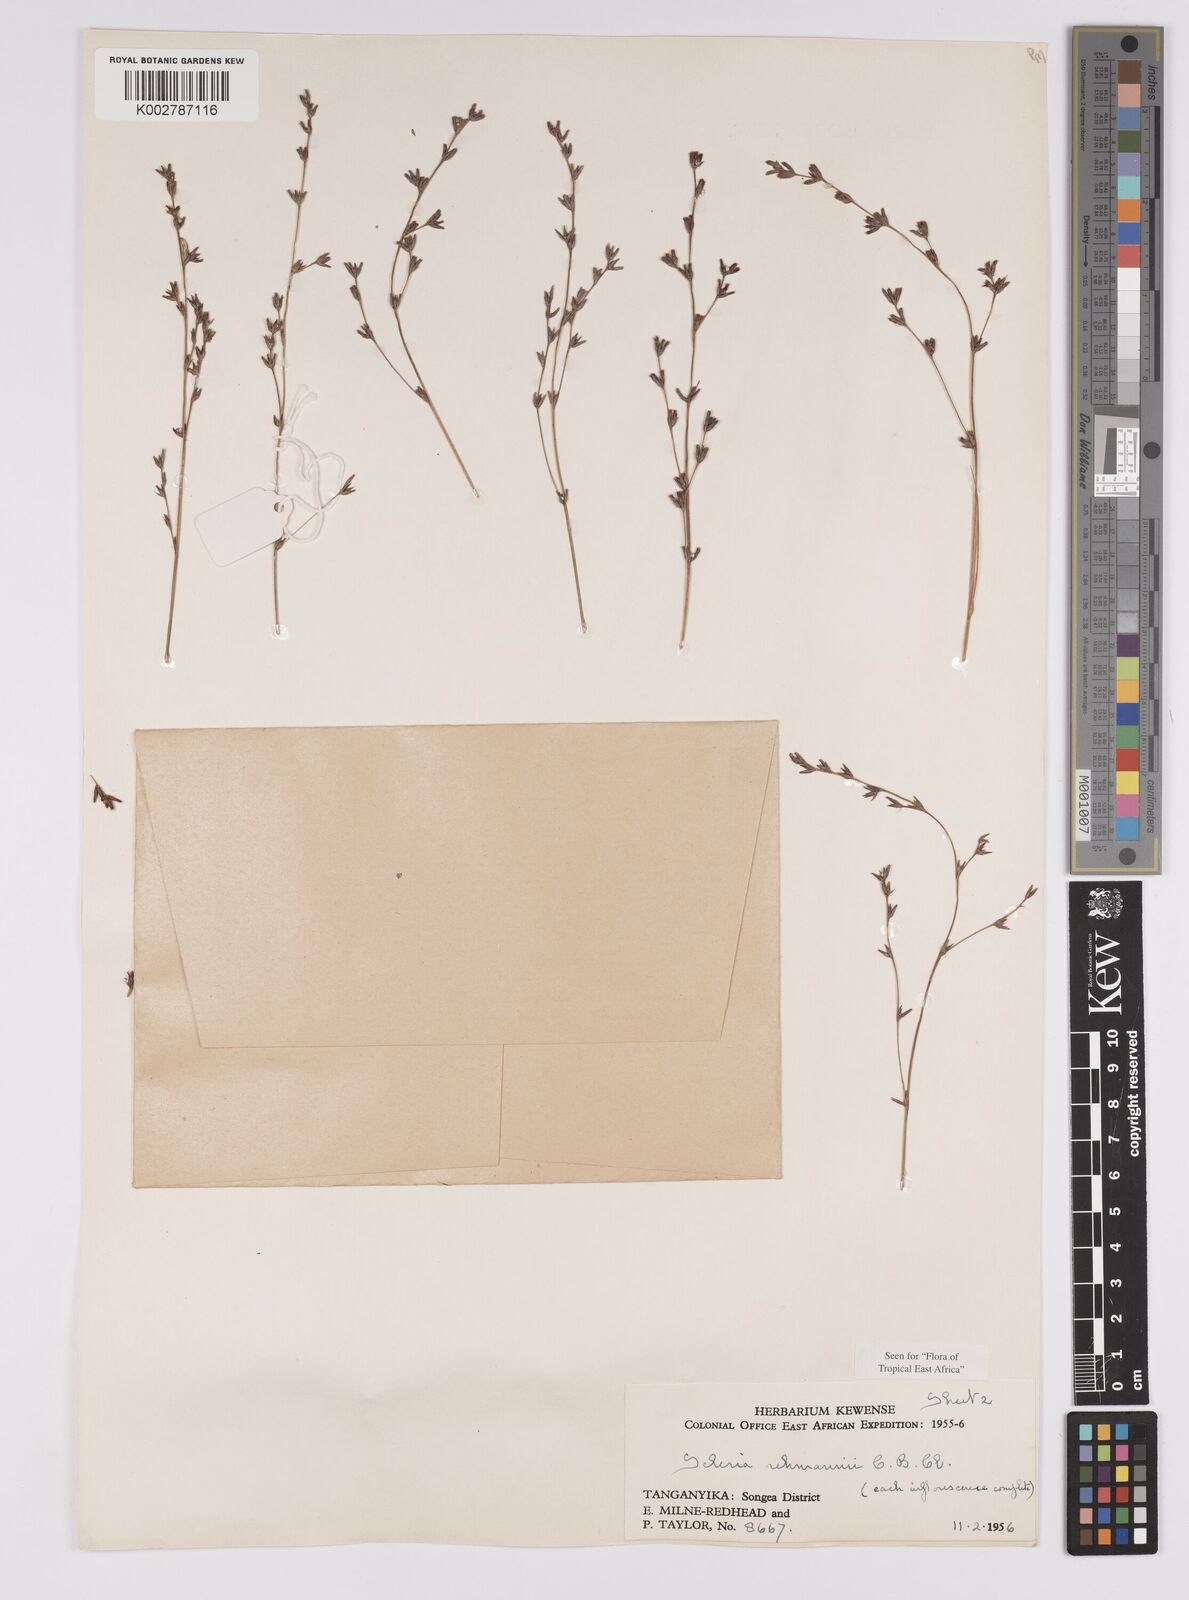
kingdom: Plantae
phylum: Tracheophyta
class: Liliopsida
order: Poales
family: Cyperaceae
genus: Scleria
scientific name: Scleria rehmannii
